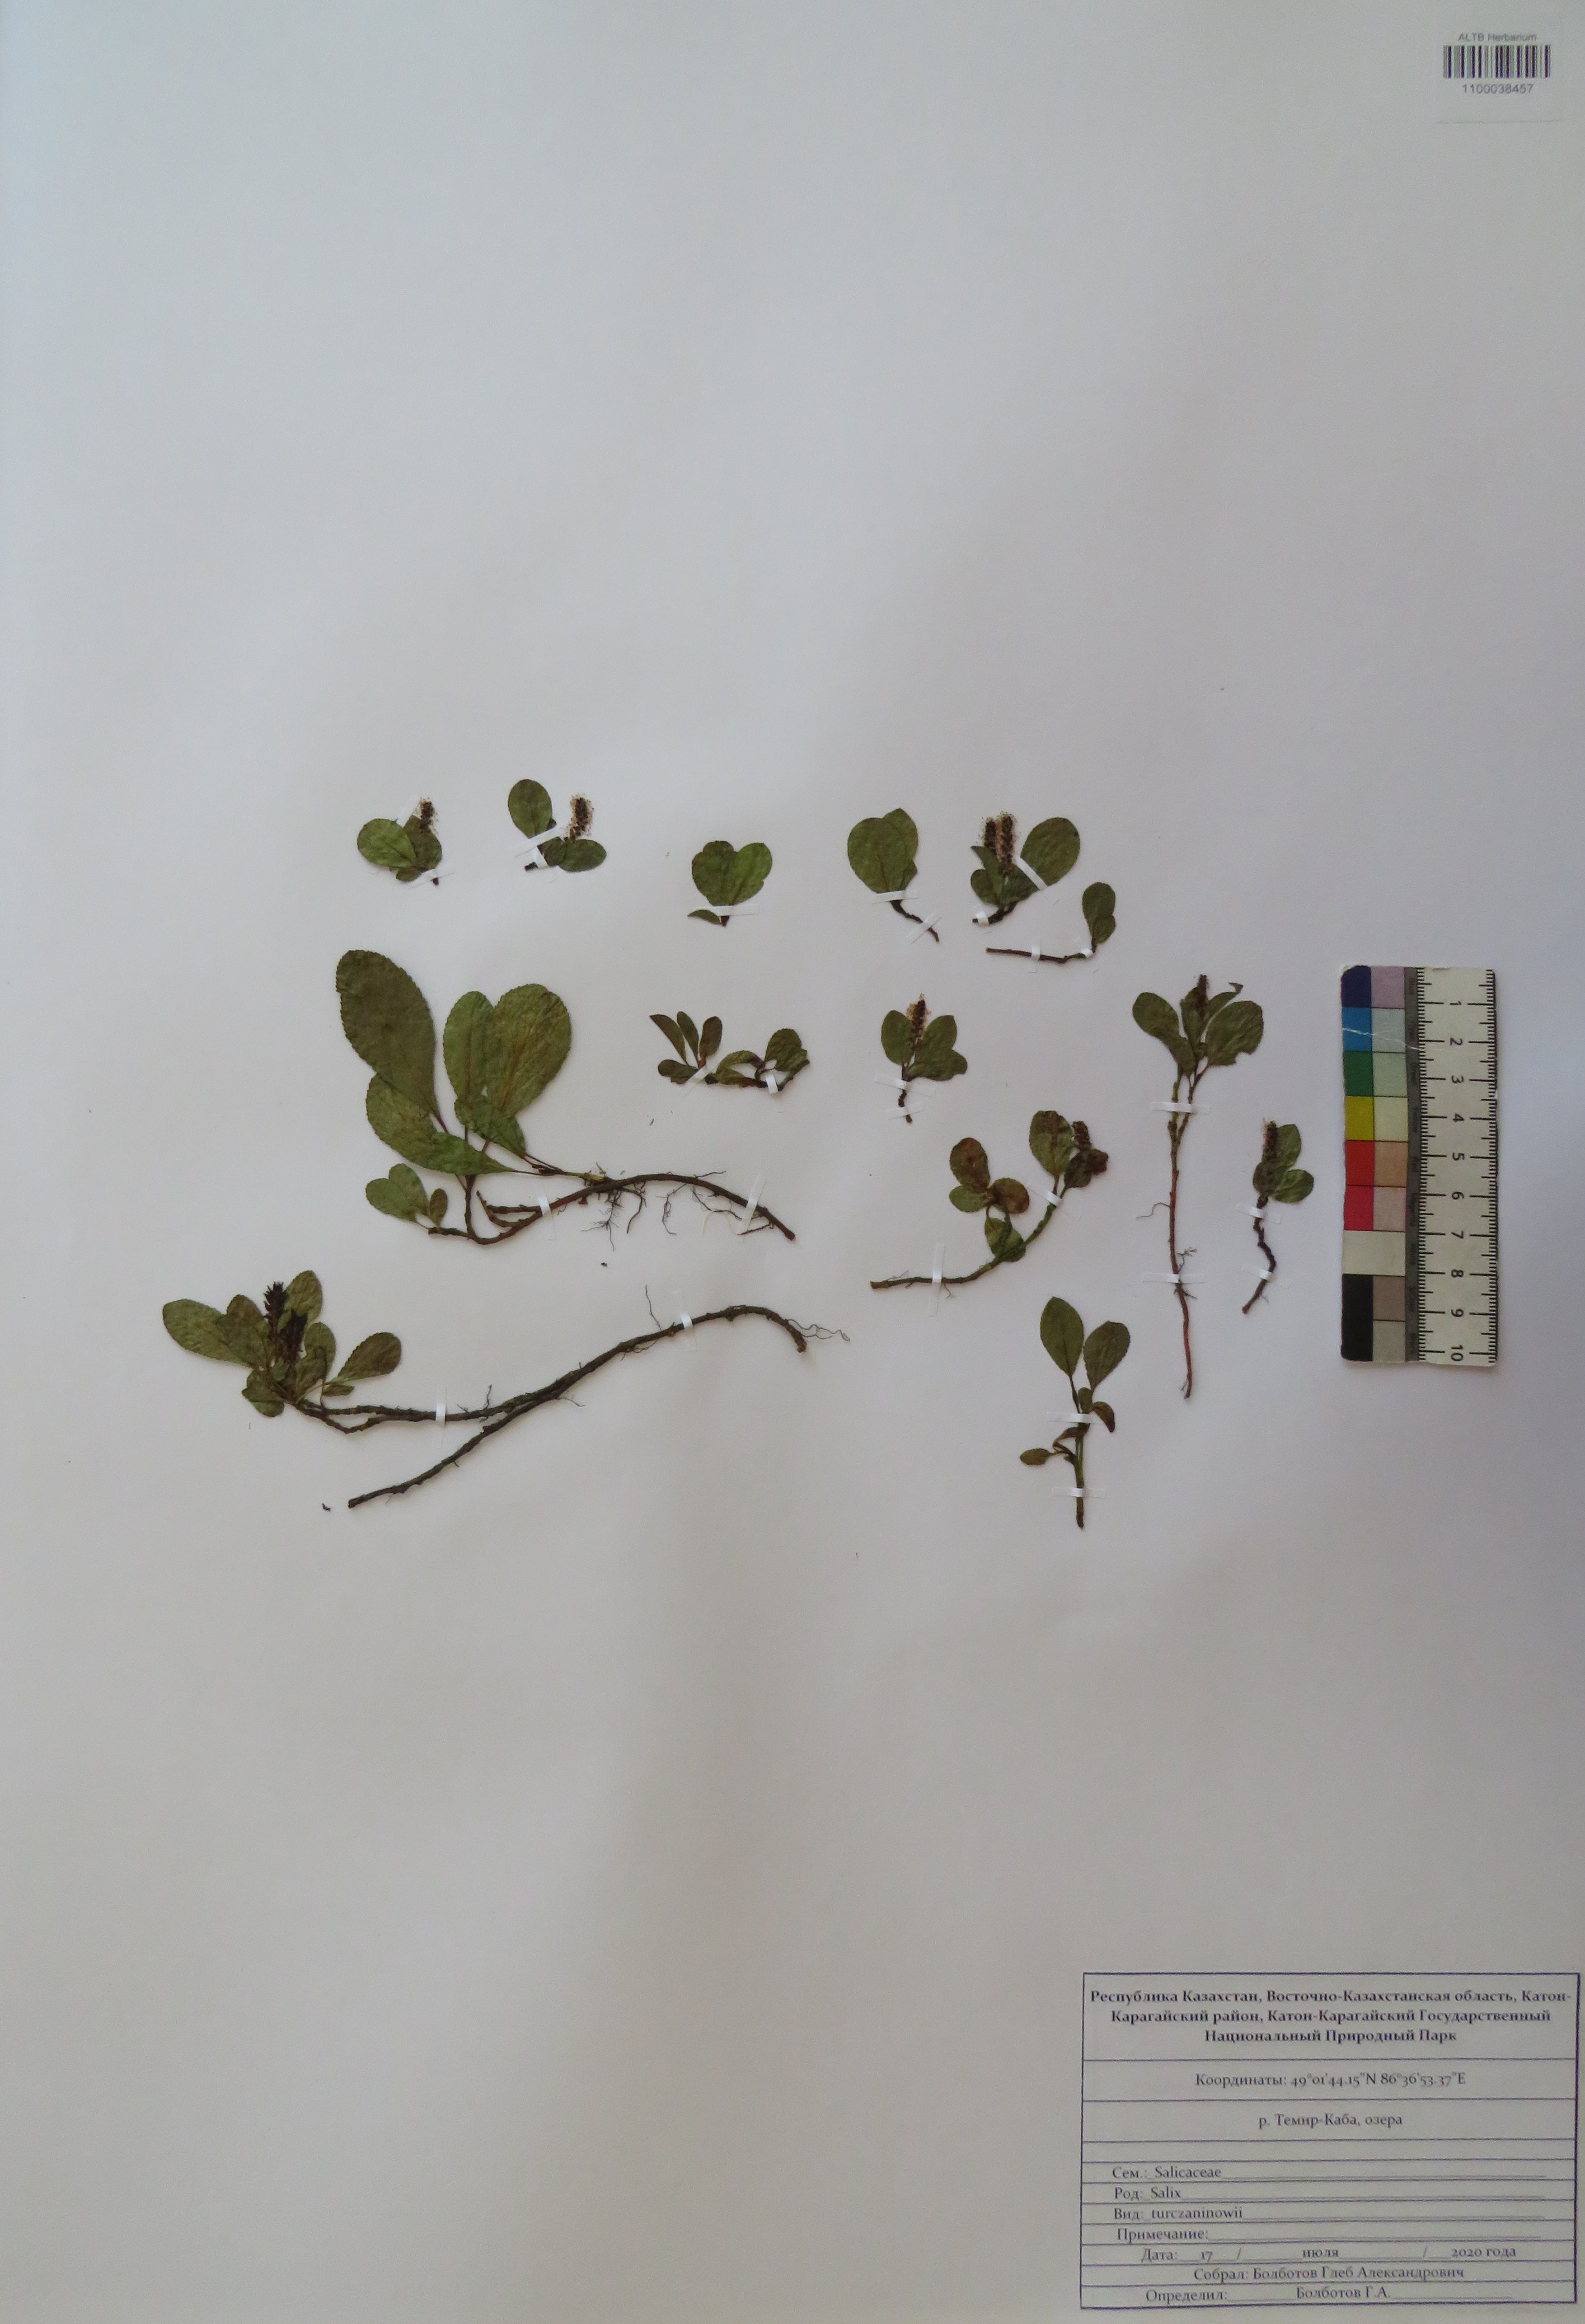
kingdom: Plantae
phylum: Tracheophyta
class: Magnoliopsida
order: Malpighiales
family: Salicaceae
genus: Salix
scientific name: Salix turczaninowii
